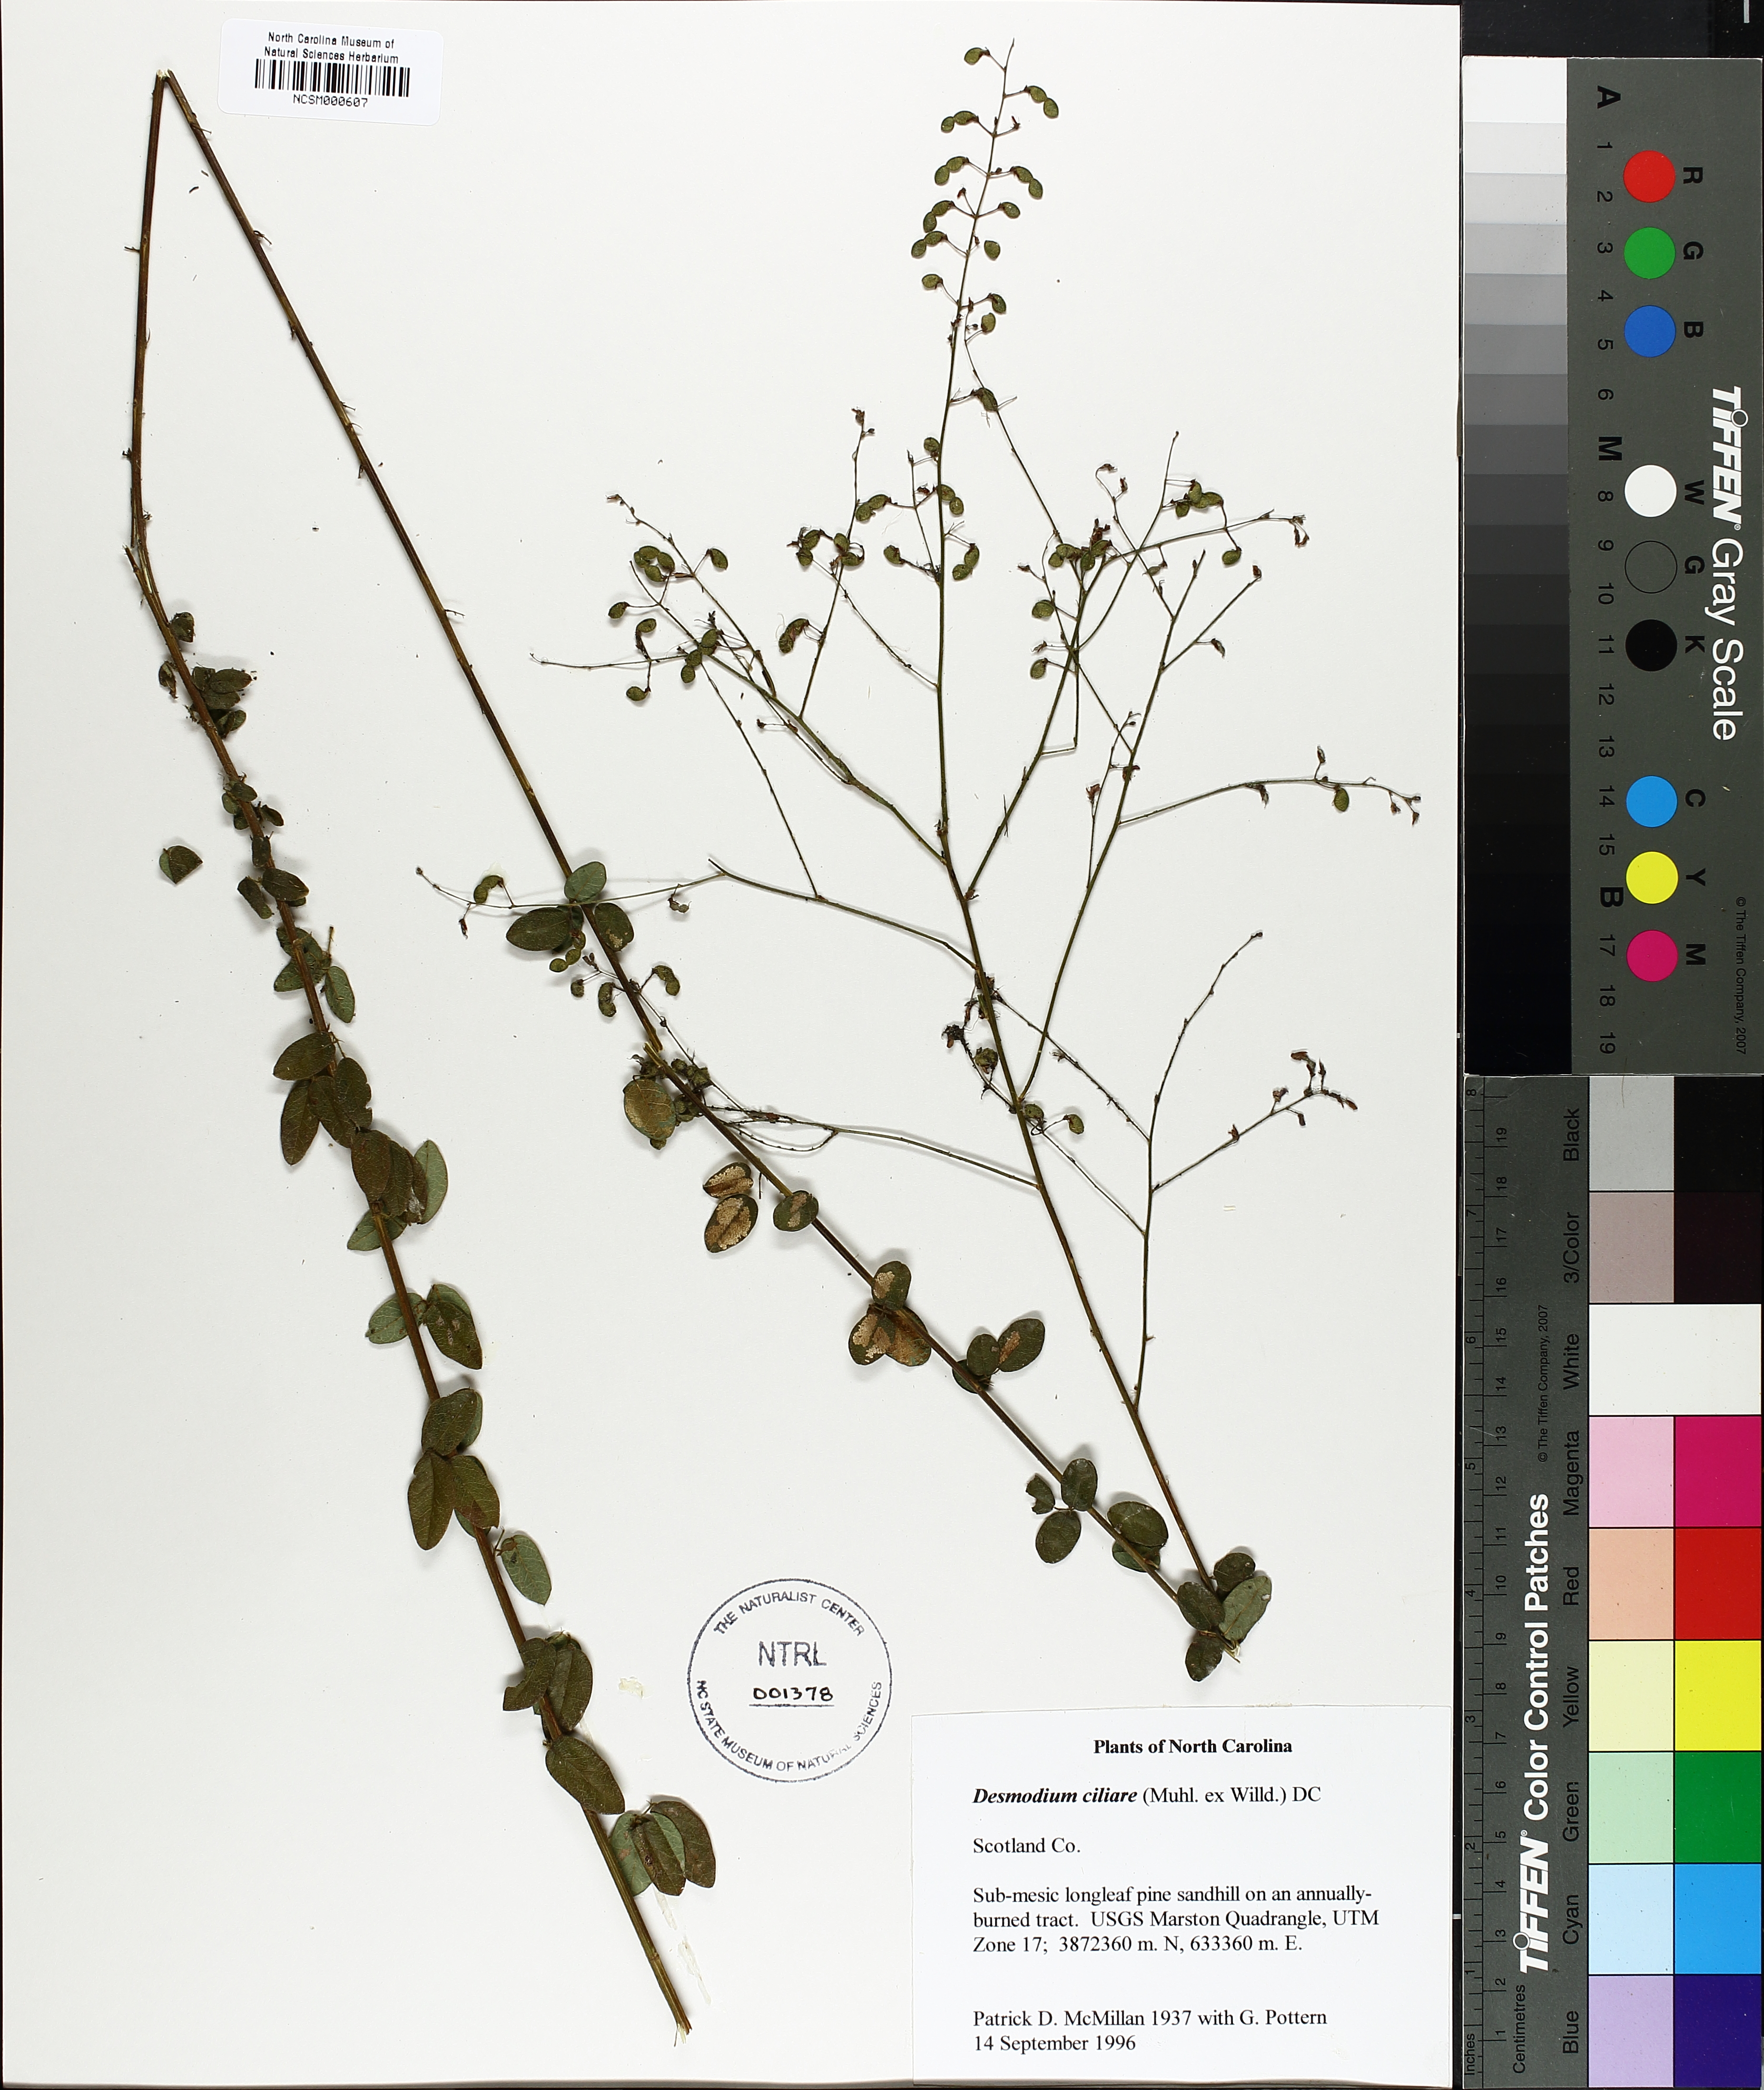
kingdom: Plantae
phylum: Tracheophyta
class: Magnoliopsida
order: Fabales
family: Fabaceae
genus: Desmodium
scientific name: Desmodium ciliare
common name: Hairy small-leaf ticktrefoil
